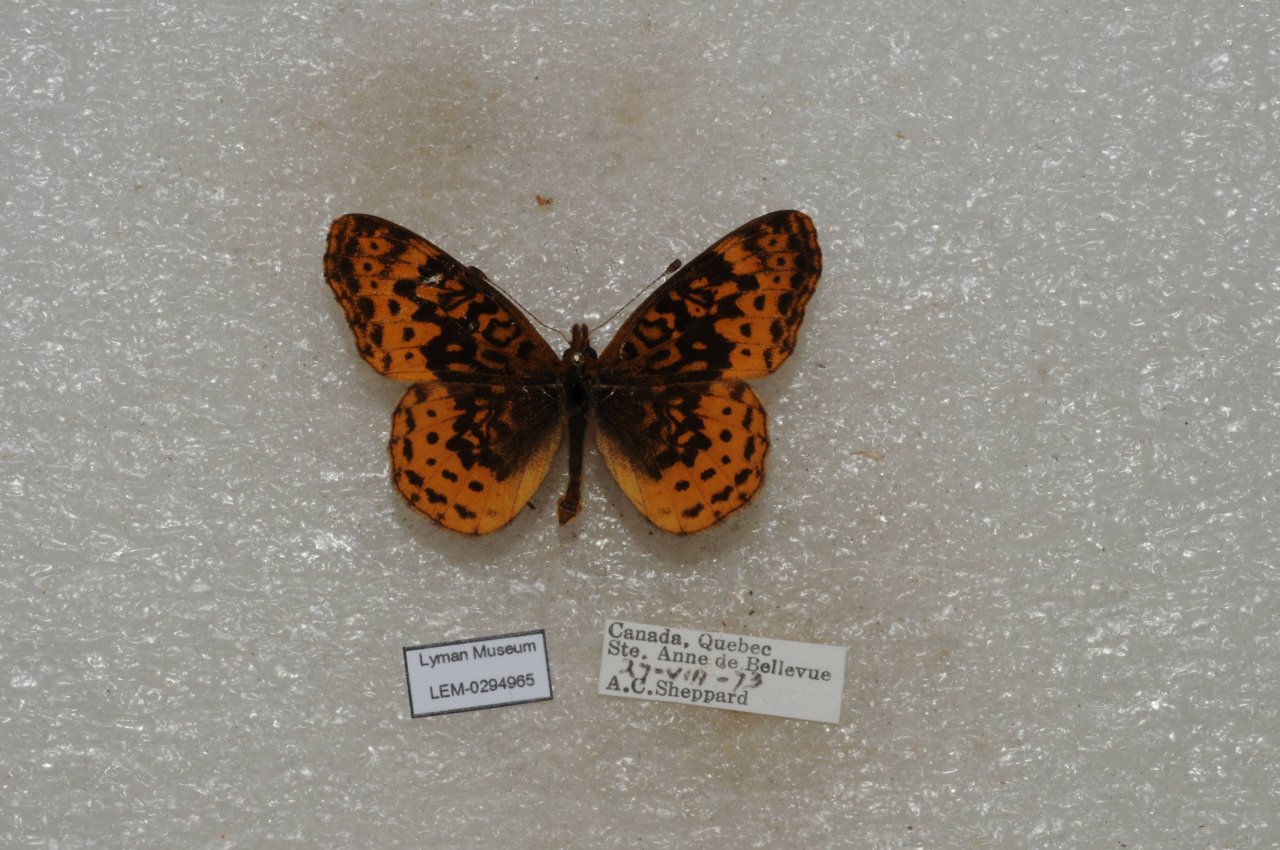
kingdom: Animalia
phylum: Arthropoda
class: Insecta
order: Lepidoptera
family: Nymphalidae
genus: Clossiana
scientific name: Clossiana toddi
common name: Meadow Fritillary
